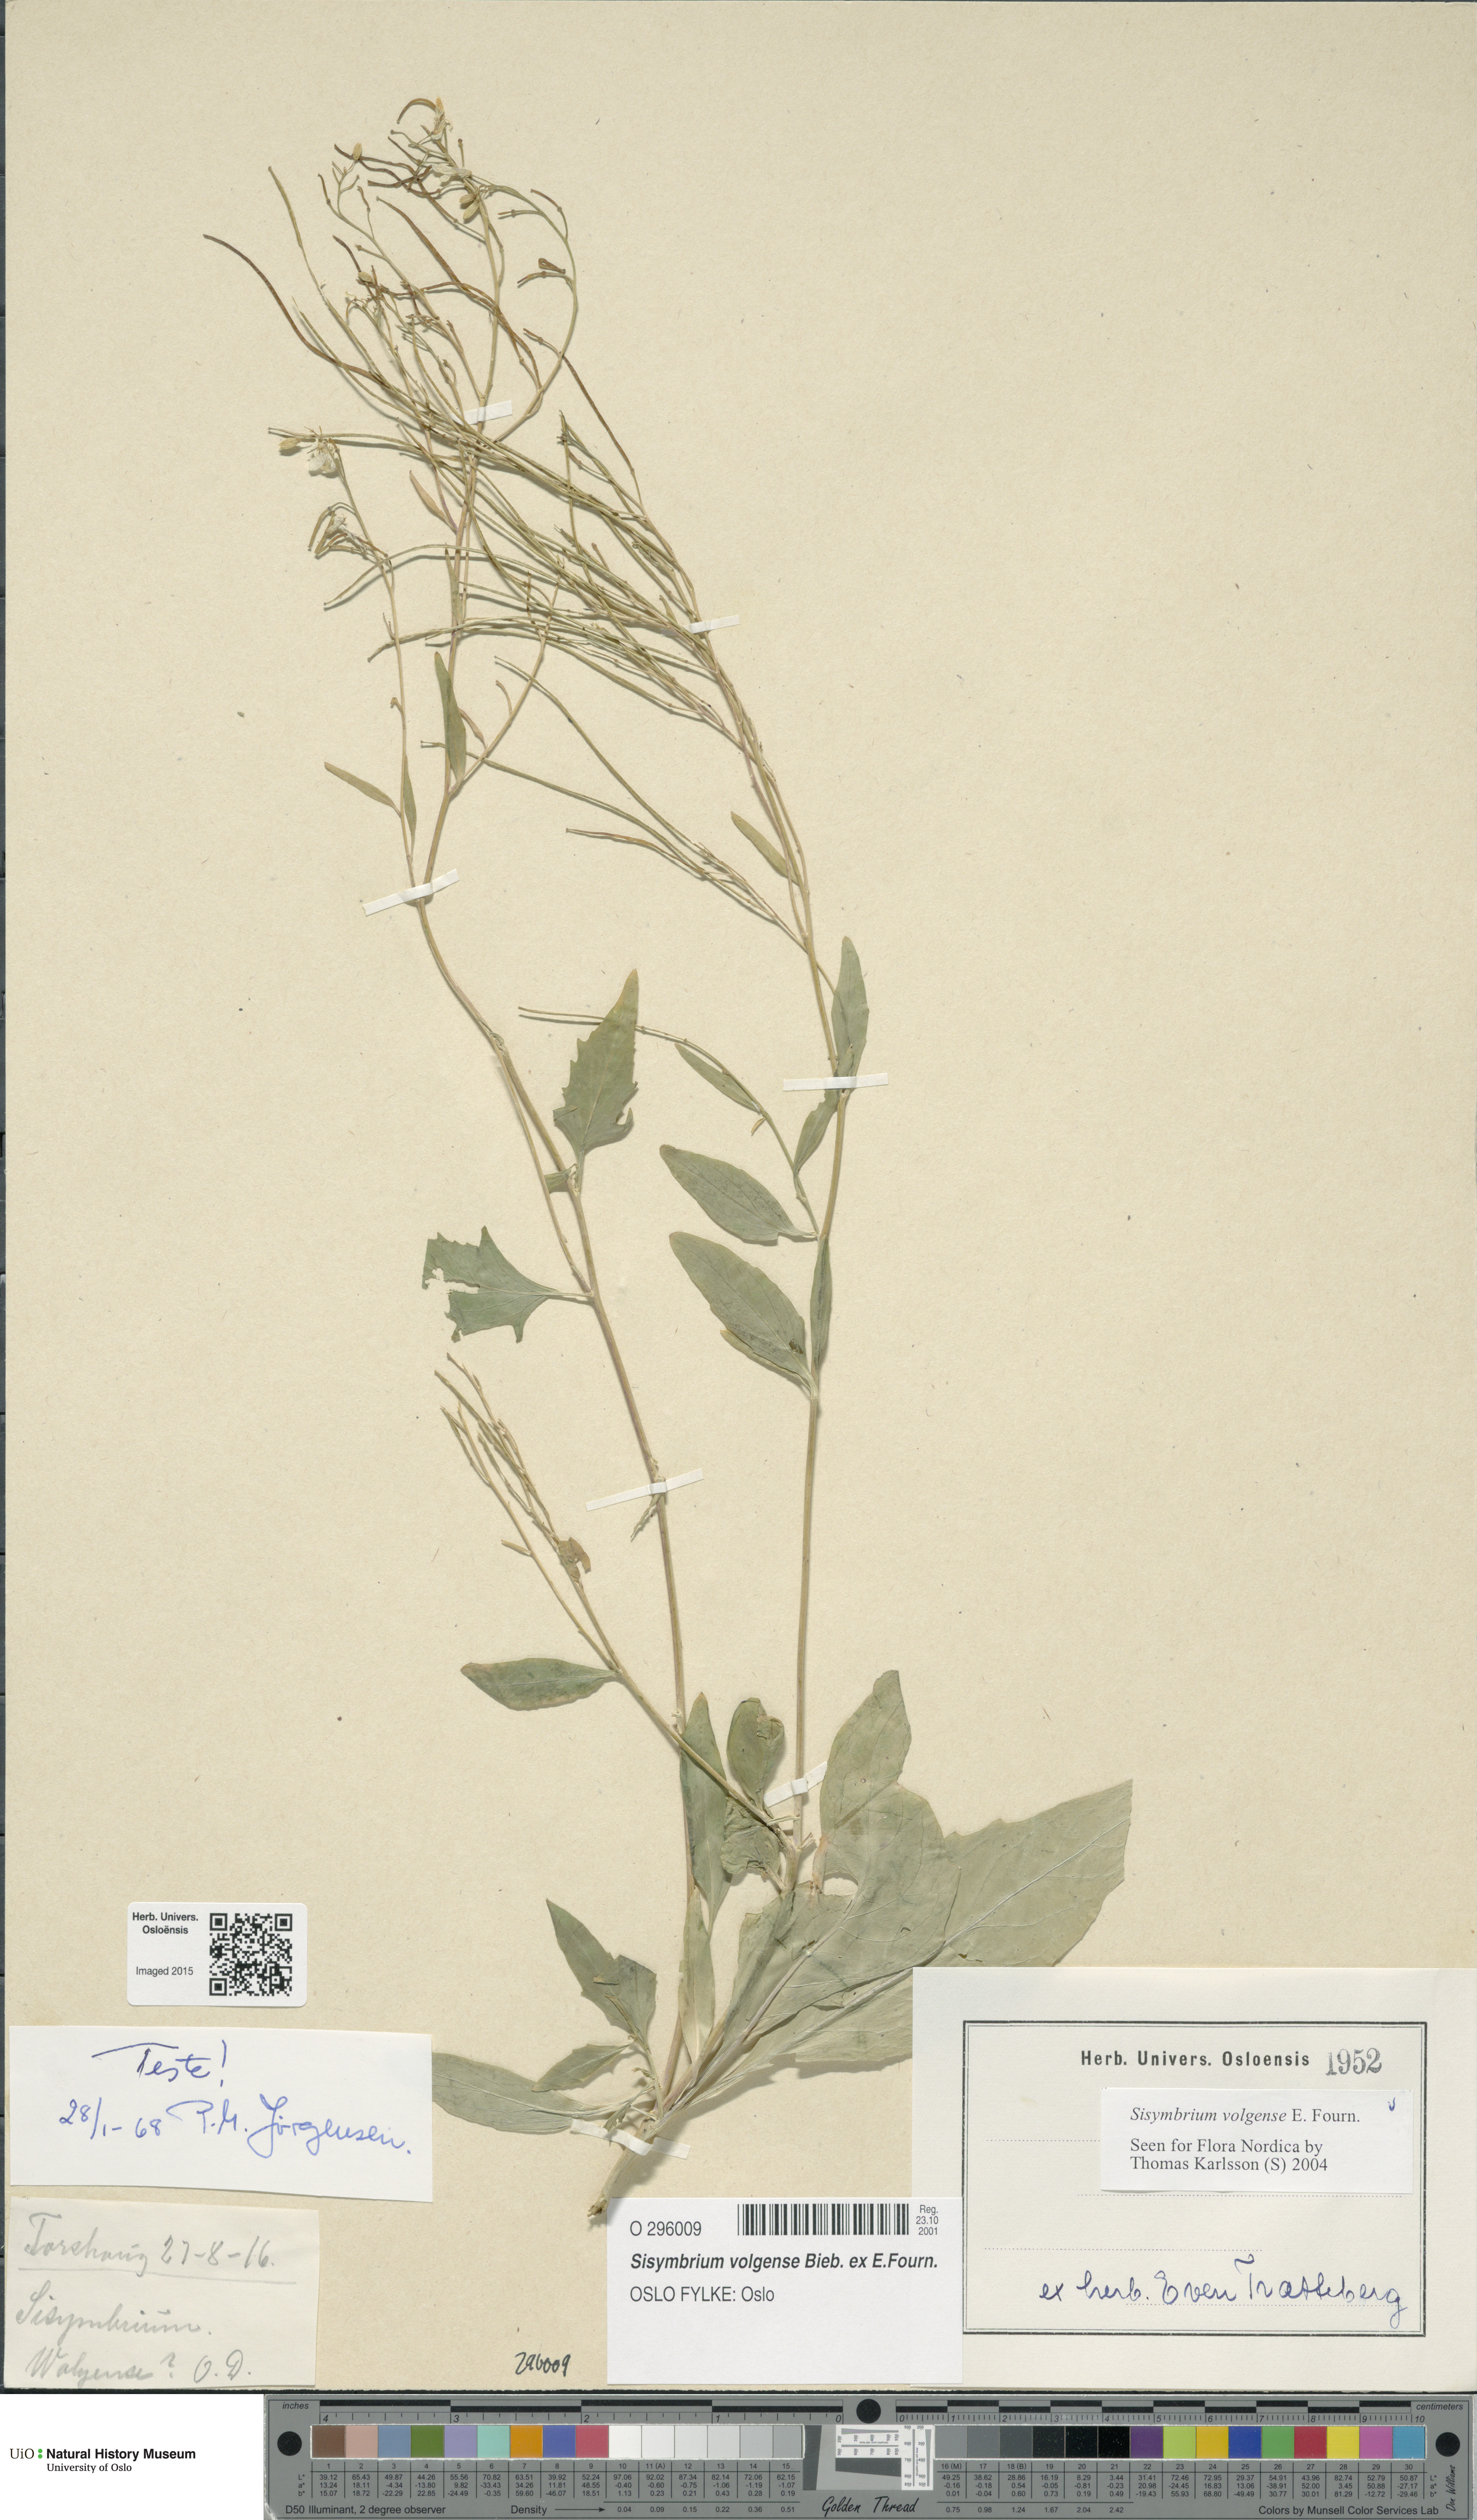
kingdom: Plantae
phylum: Tracheophyta
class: Magnoliopsida
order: Brassicales
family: Brassicaceae
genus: Sisymbrium
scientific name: Sisymbrium volgense
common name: Russian mustard
